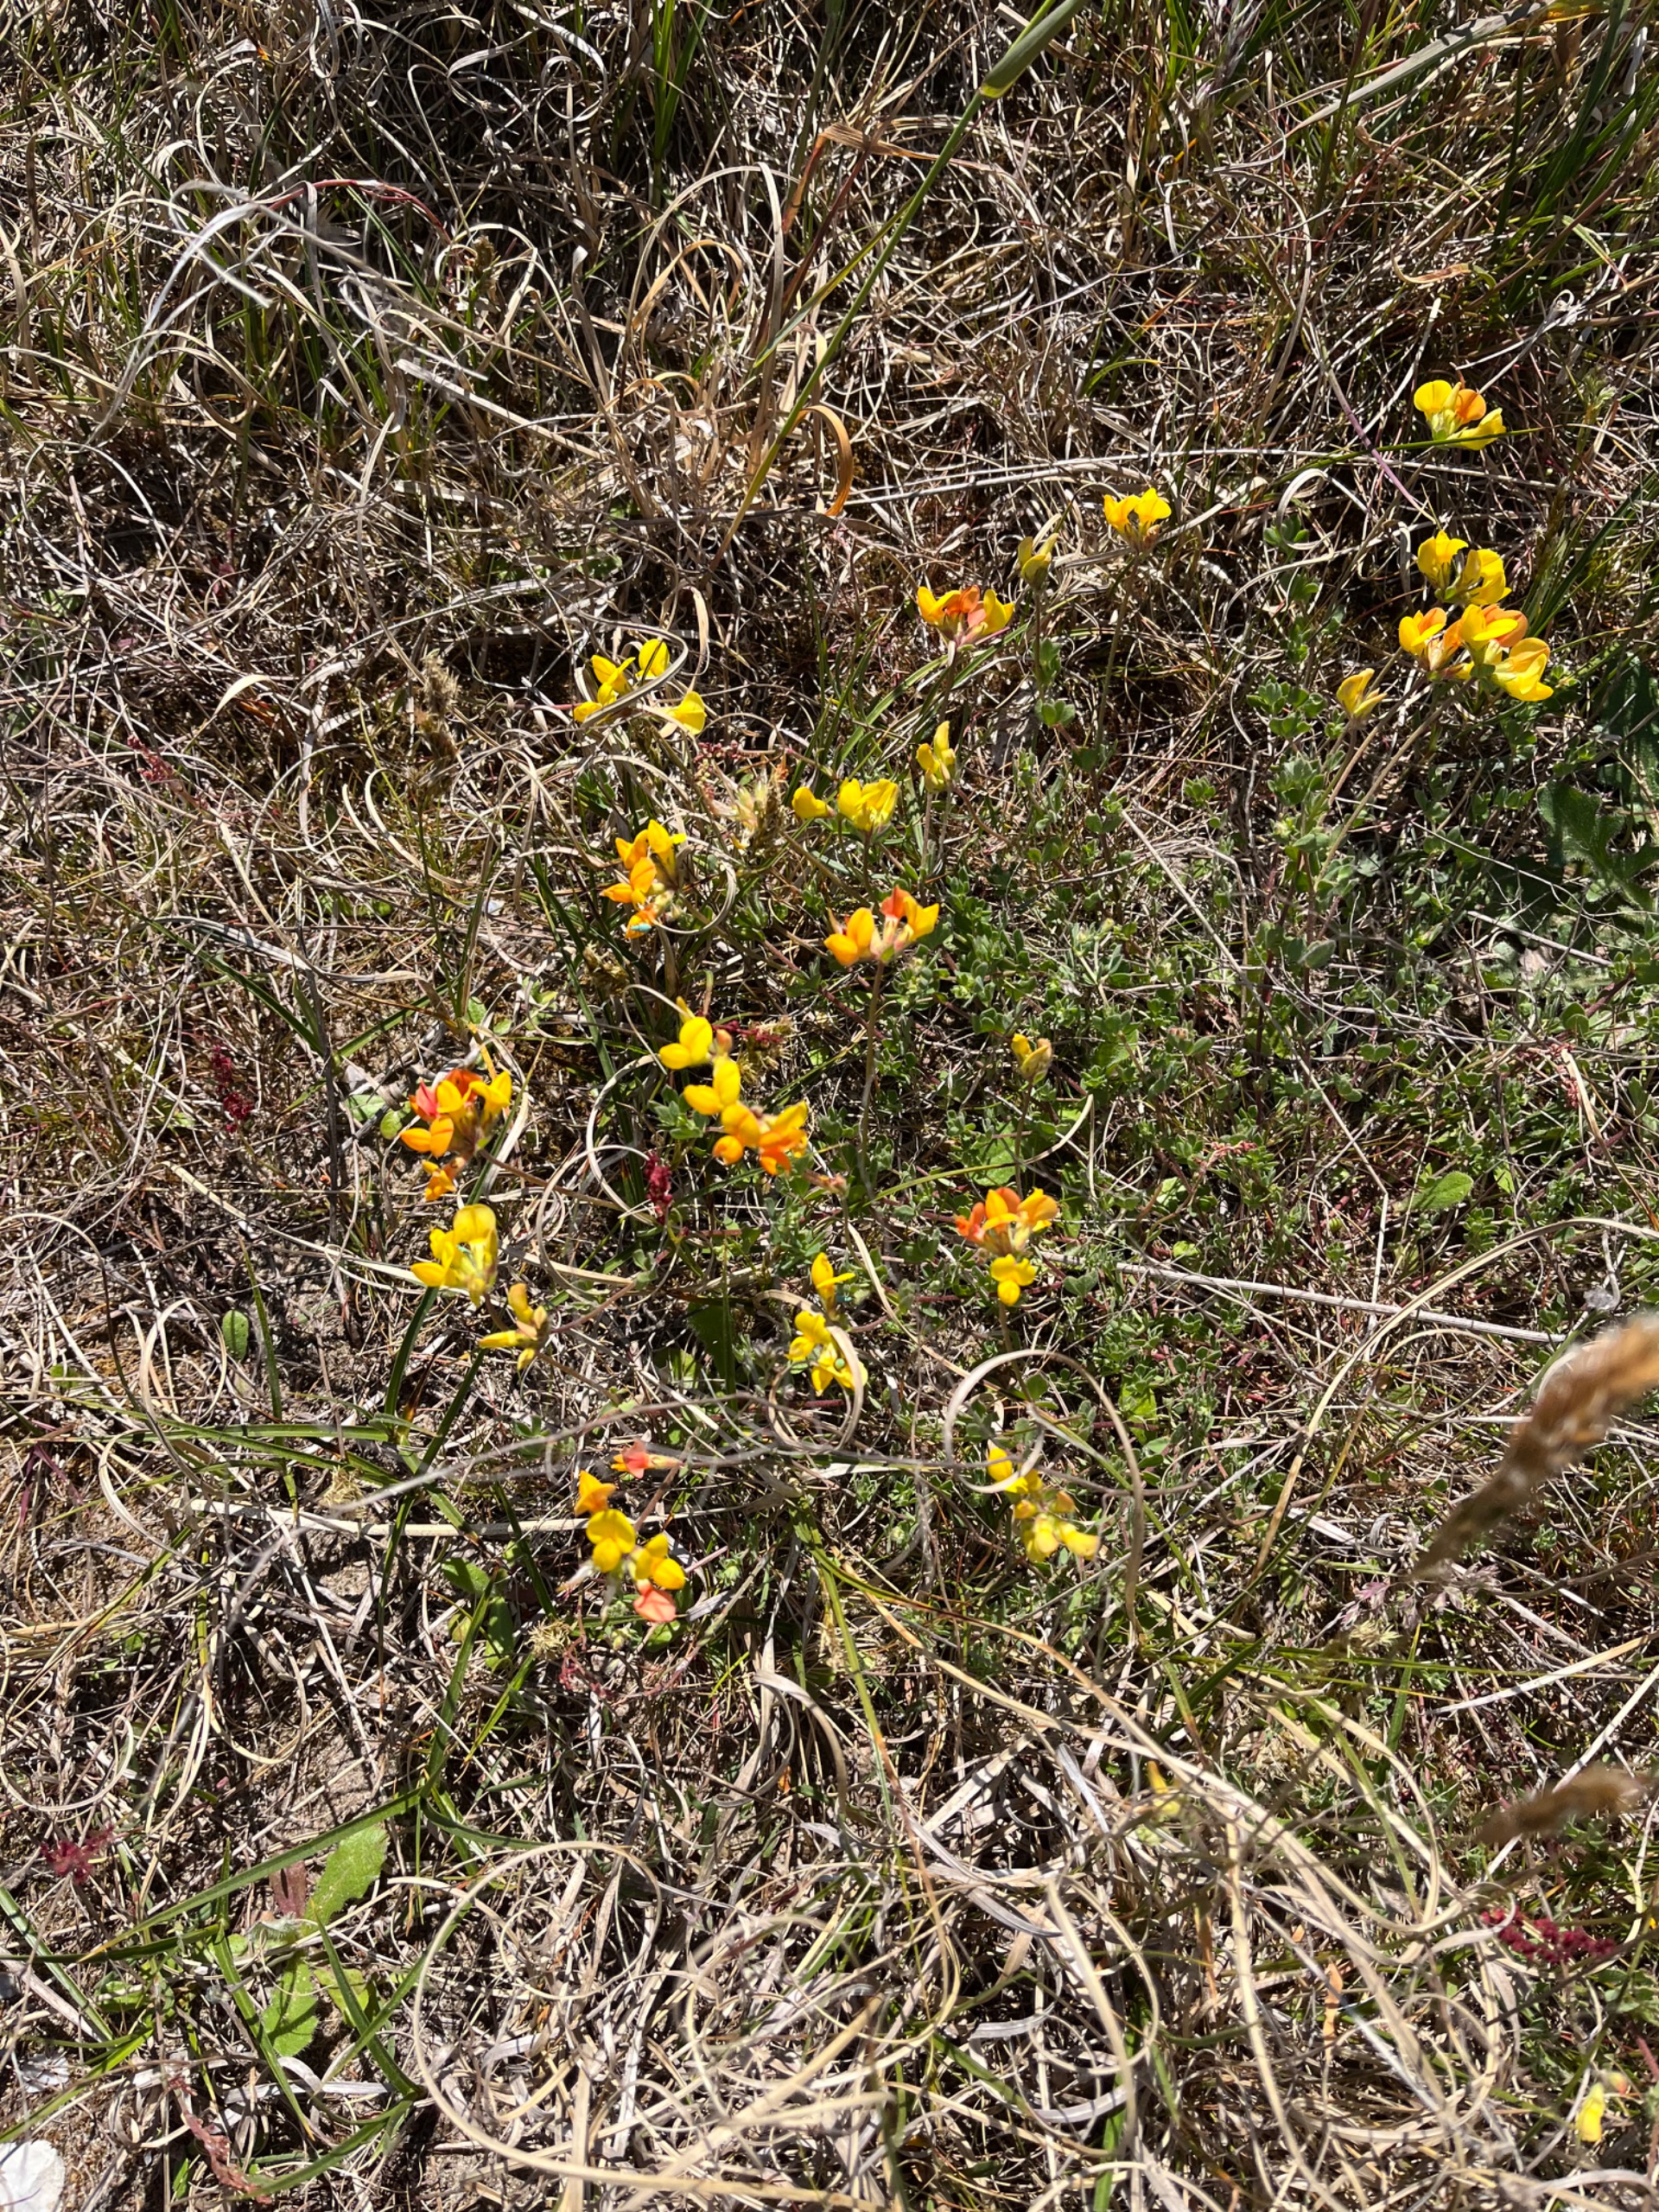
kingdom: Plantae
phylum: Tracheophyta
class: Magnoliopsida
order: Fabales
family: Fabaceae
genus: Lotus
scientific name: Lotus corniculatus
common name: Almindelig kællingetand
